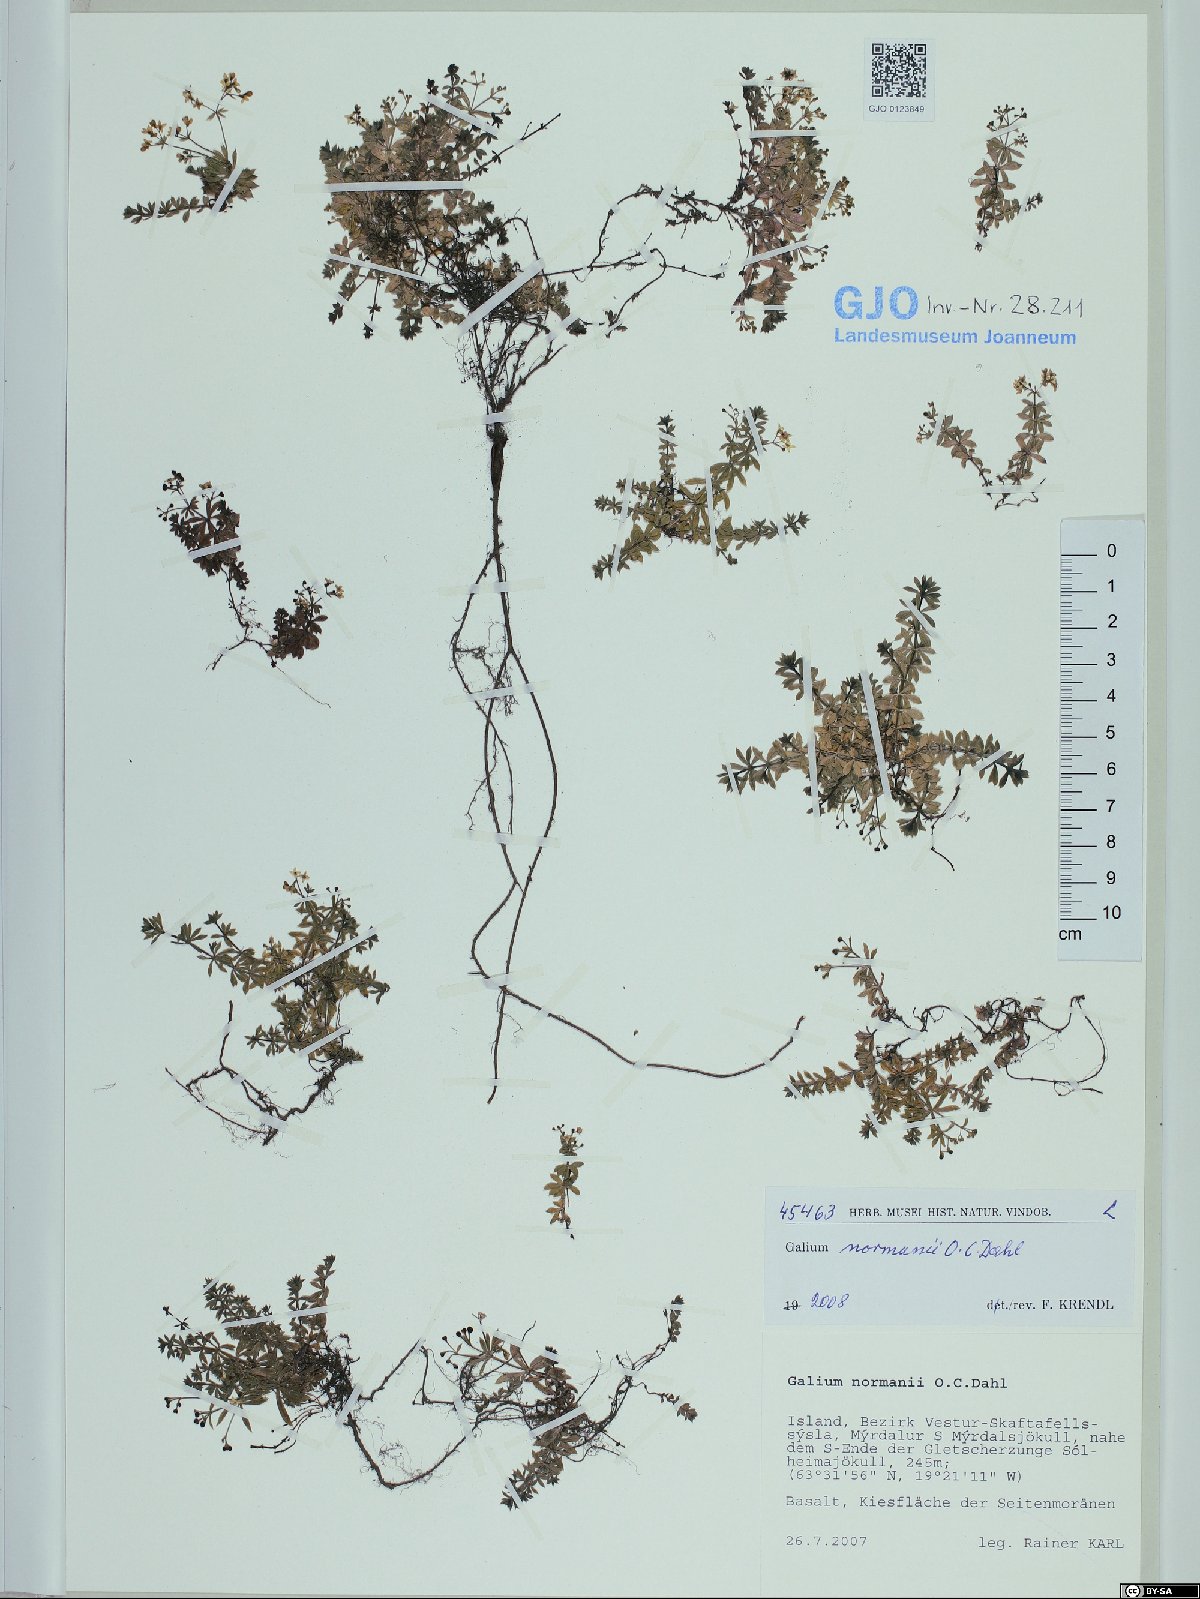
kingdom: Plantae
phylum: Tracheophyta
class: Magnoliopsida
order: Gentianales
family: Rubiaceae
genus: Galium
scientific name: Galium normanii
